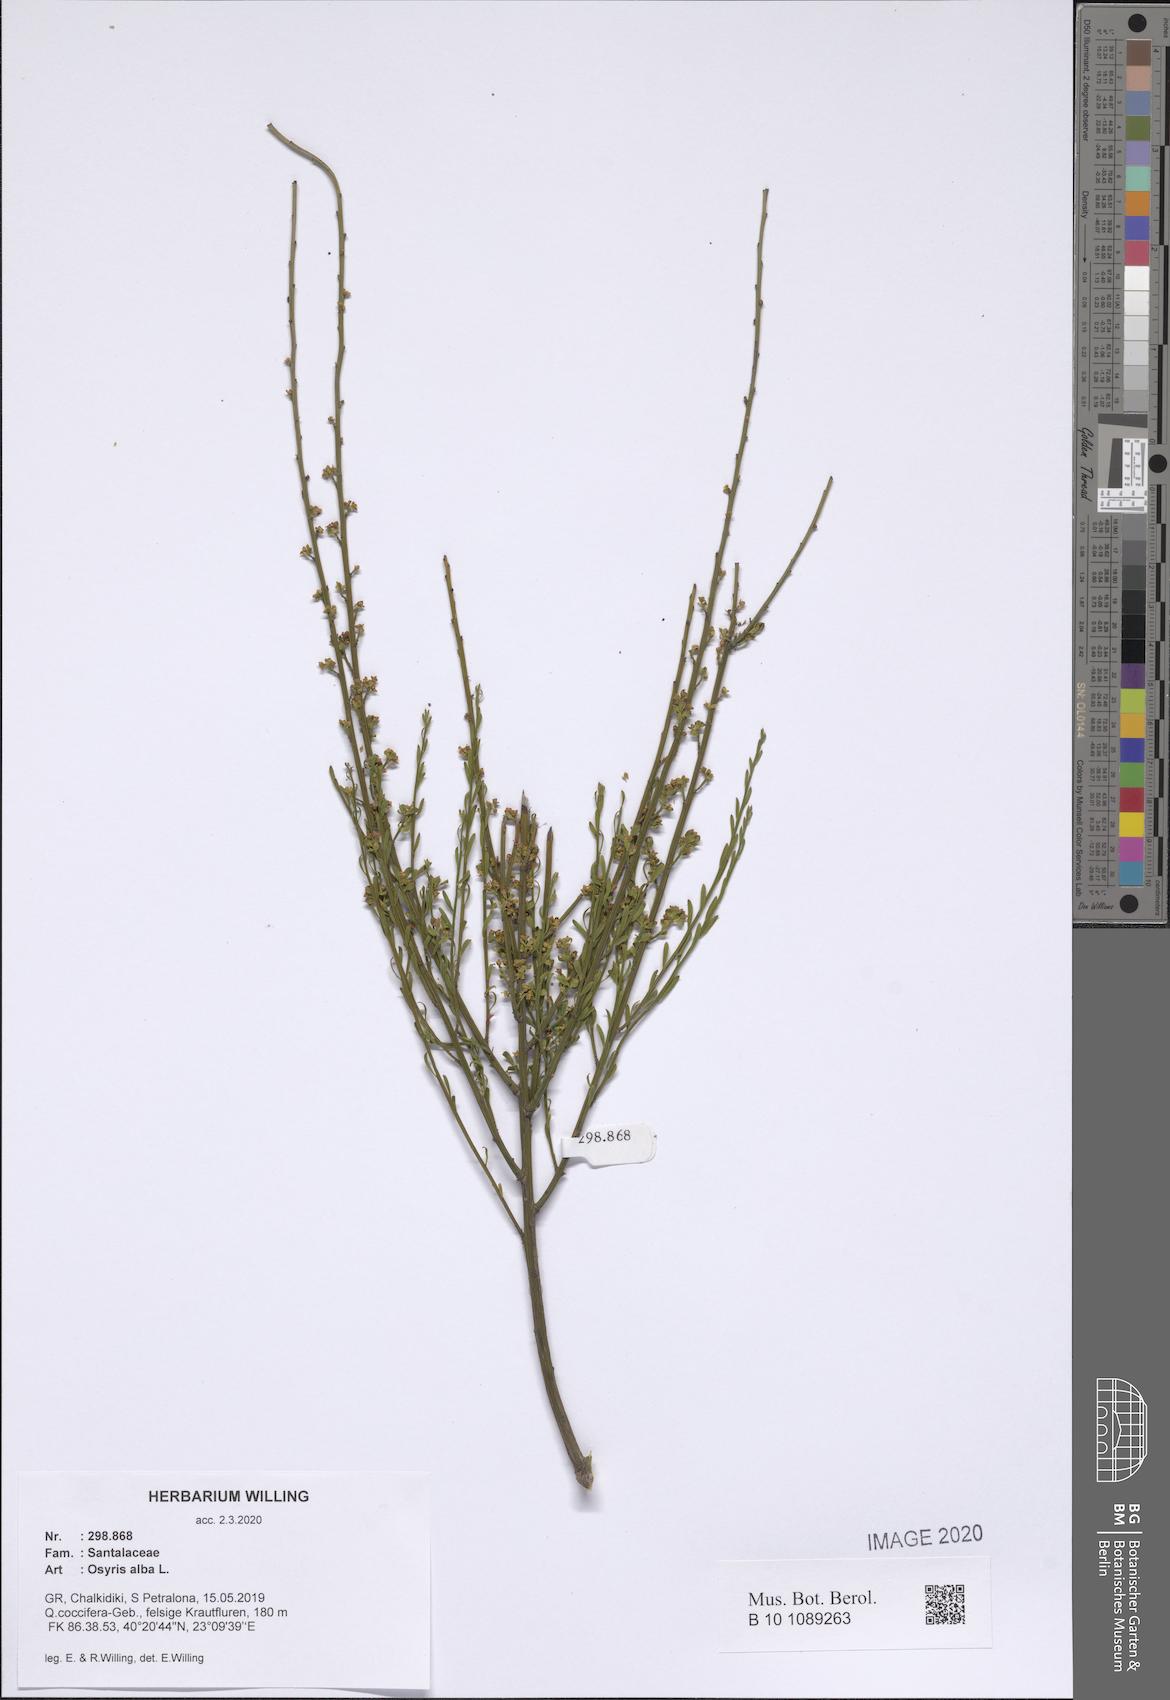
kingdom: Plantae
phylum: Tracheophyta
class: Magnoliopsida
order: Santalales
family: Santalaceae
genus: Osyris
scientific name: Osyris alba
